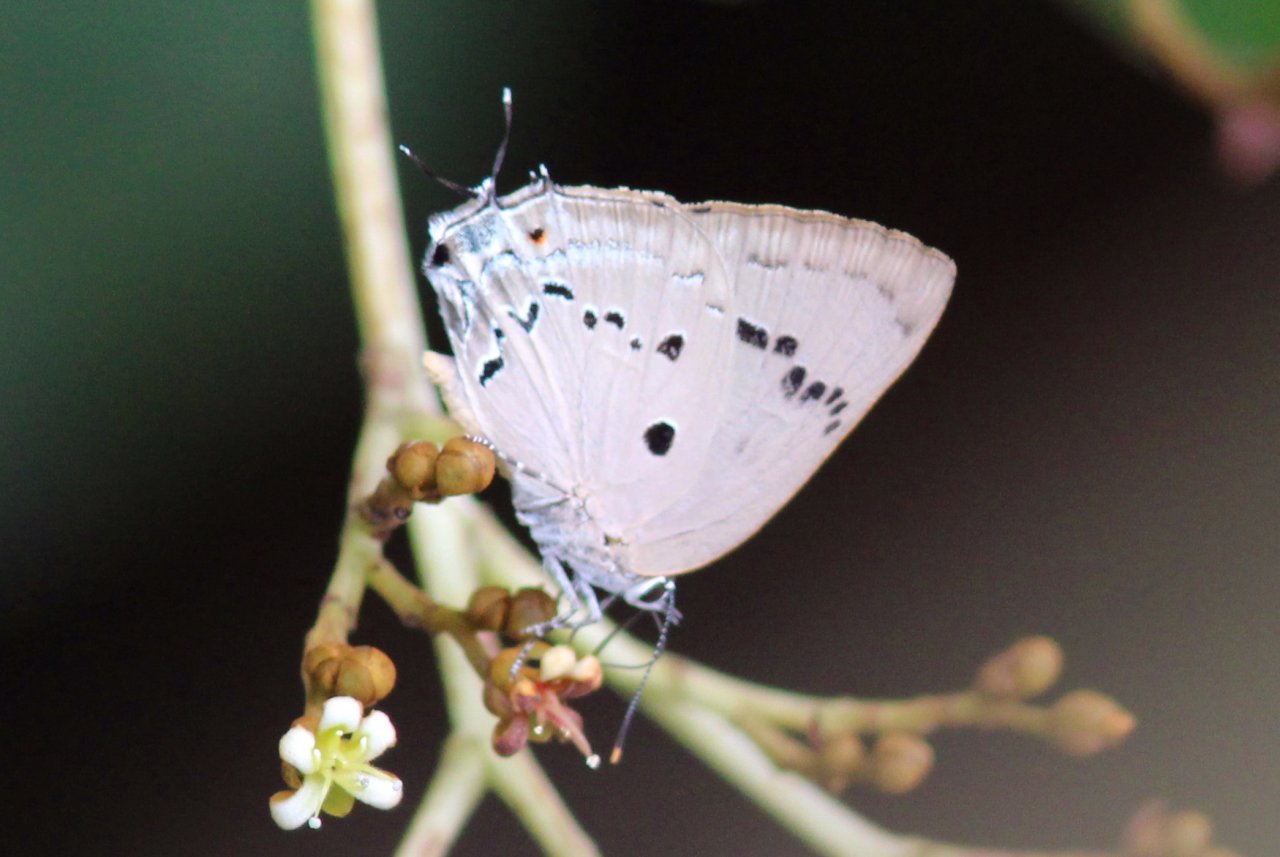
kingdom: Animalia
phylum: Arthropoda
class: Insecta
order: Lepidoptera
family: Lycaenidae
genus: Parrhasius
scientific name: Parrhasius polibetes
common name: Black-spot Hairstreak
